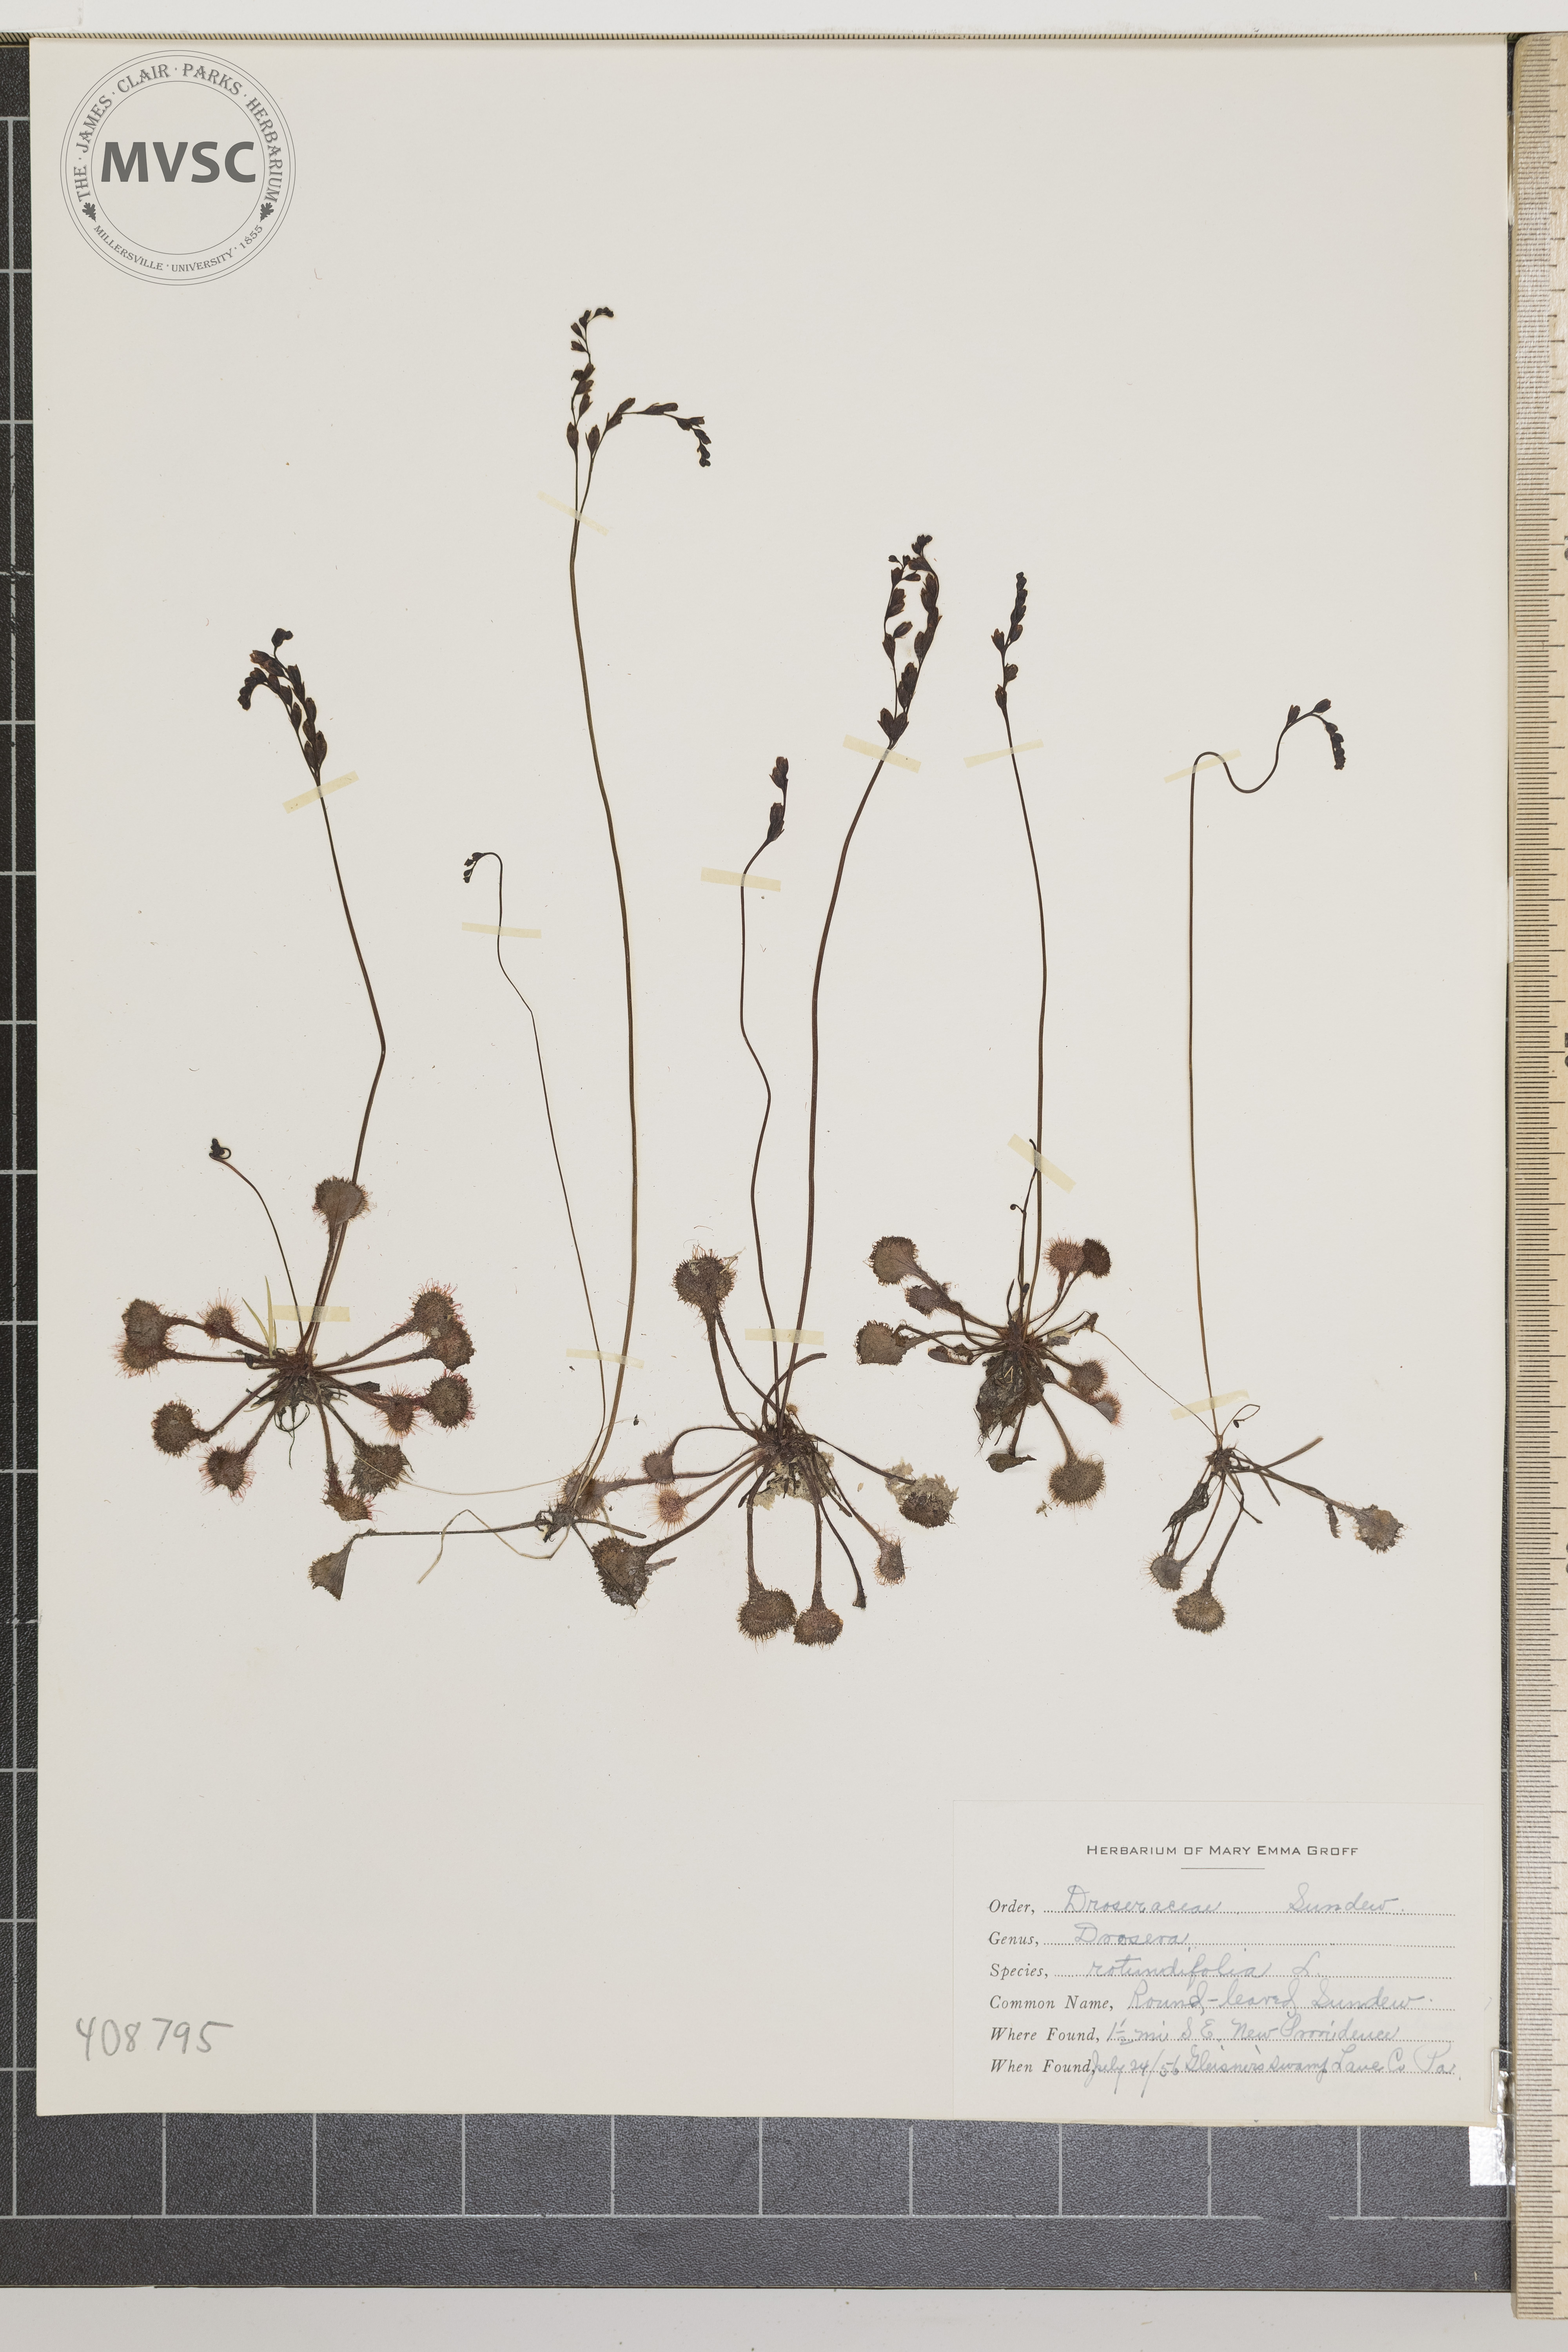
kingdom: Plantae
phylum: Tracheophyta
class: Magnoliopsida
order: Caryophyllales
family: Droseraceae
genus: Drosera
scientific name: Drosera rotundifolia
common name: Round-leaved Sundew
